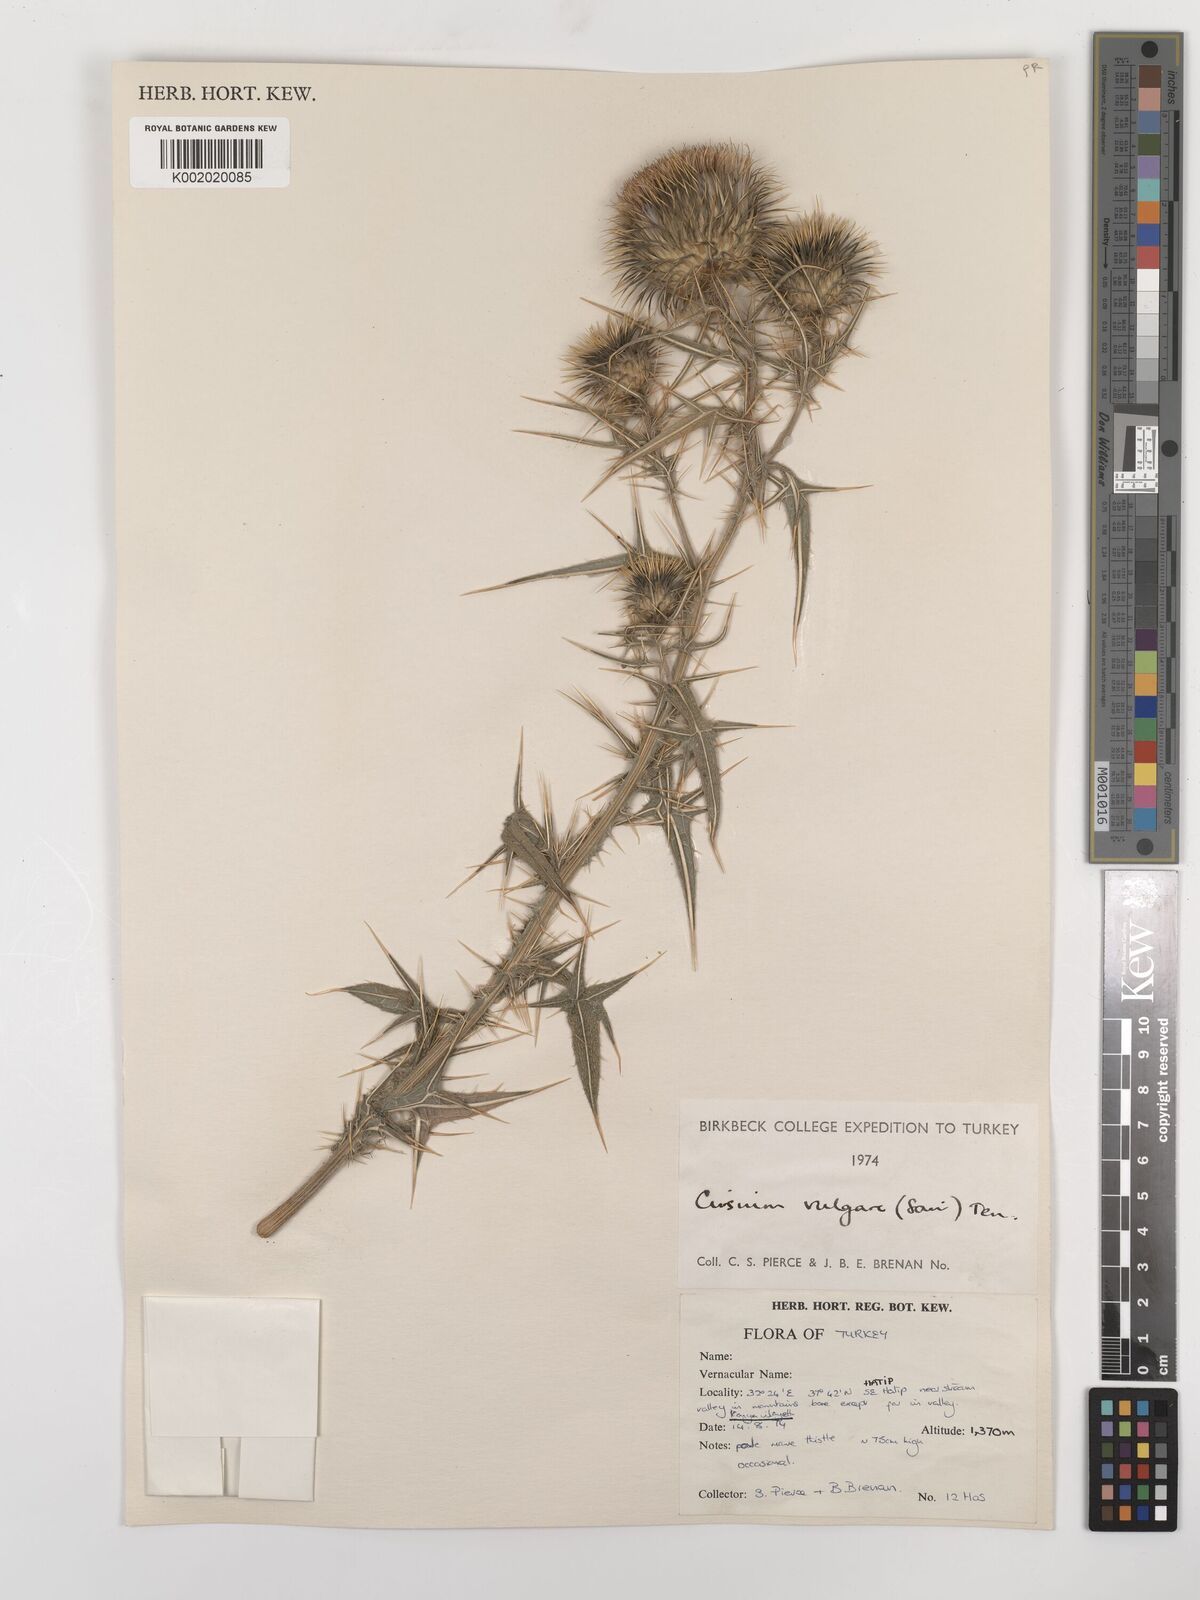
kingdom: Plantae
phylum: Tracheophyta
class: Magnoliopsida
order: Asterales
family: Asteraceae
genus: Cirsium
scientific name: Cirsium vulgare
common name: Bull thistle
